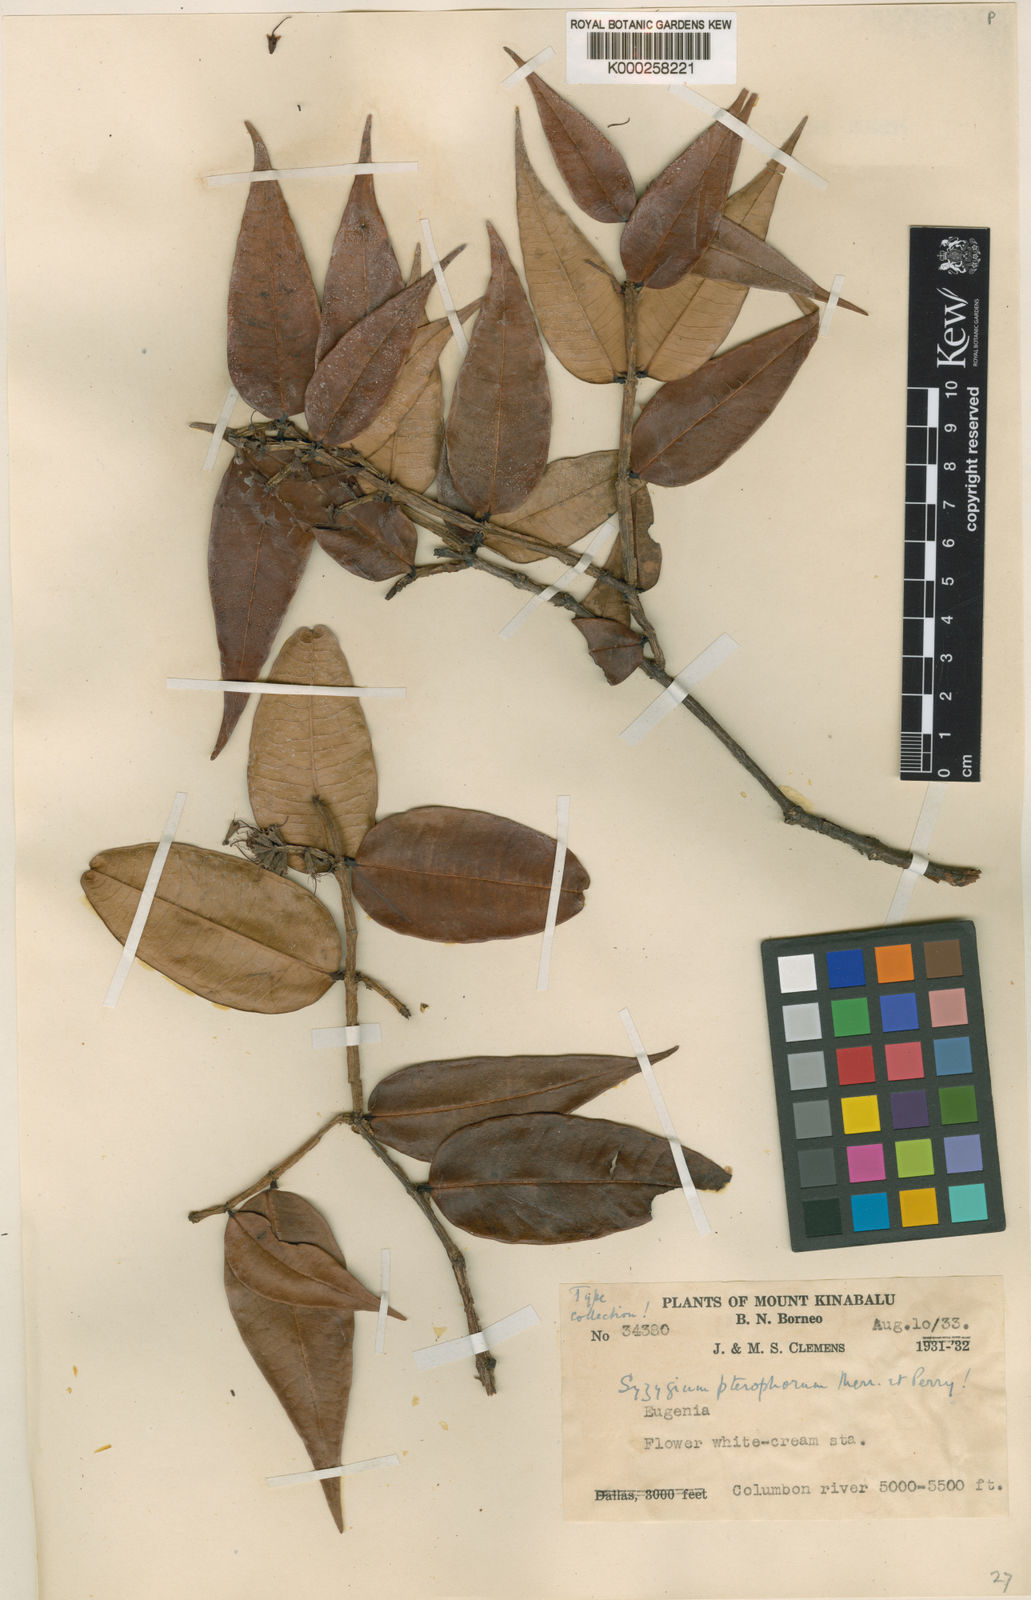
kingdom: Plantae
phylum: Tracheophyta
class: Magnoliopsida
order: Myrtales
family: Myrtaceae
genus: Syzygium
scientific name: Syzygium pterophorum
